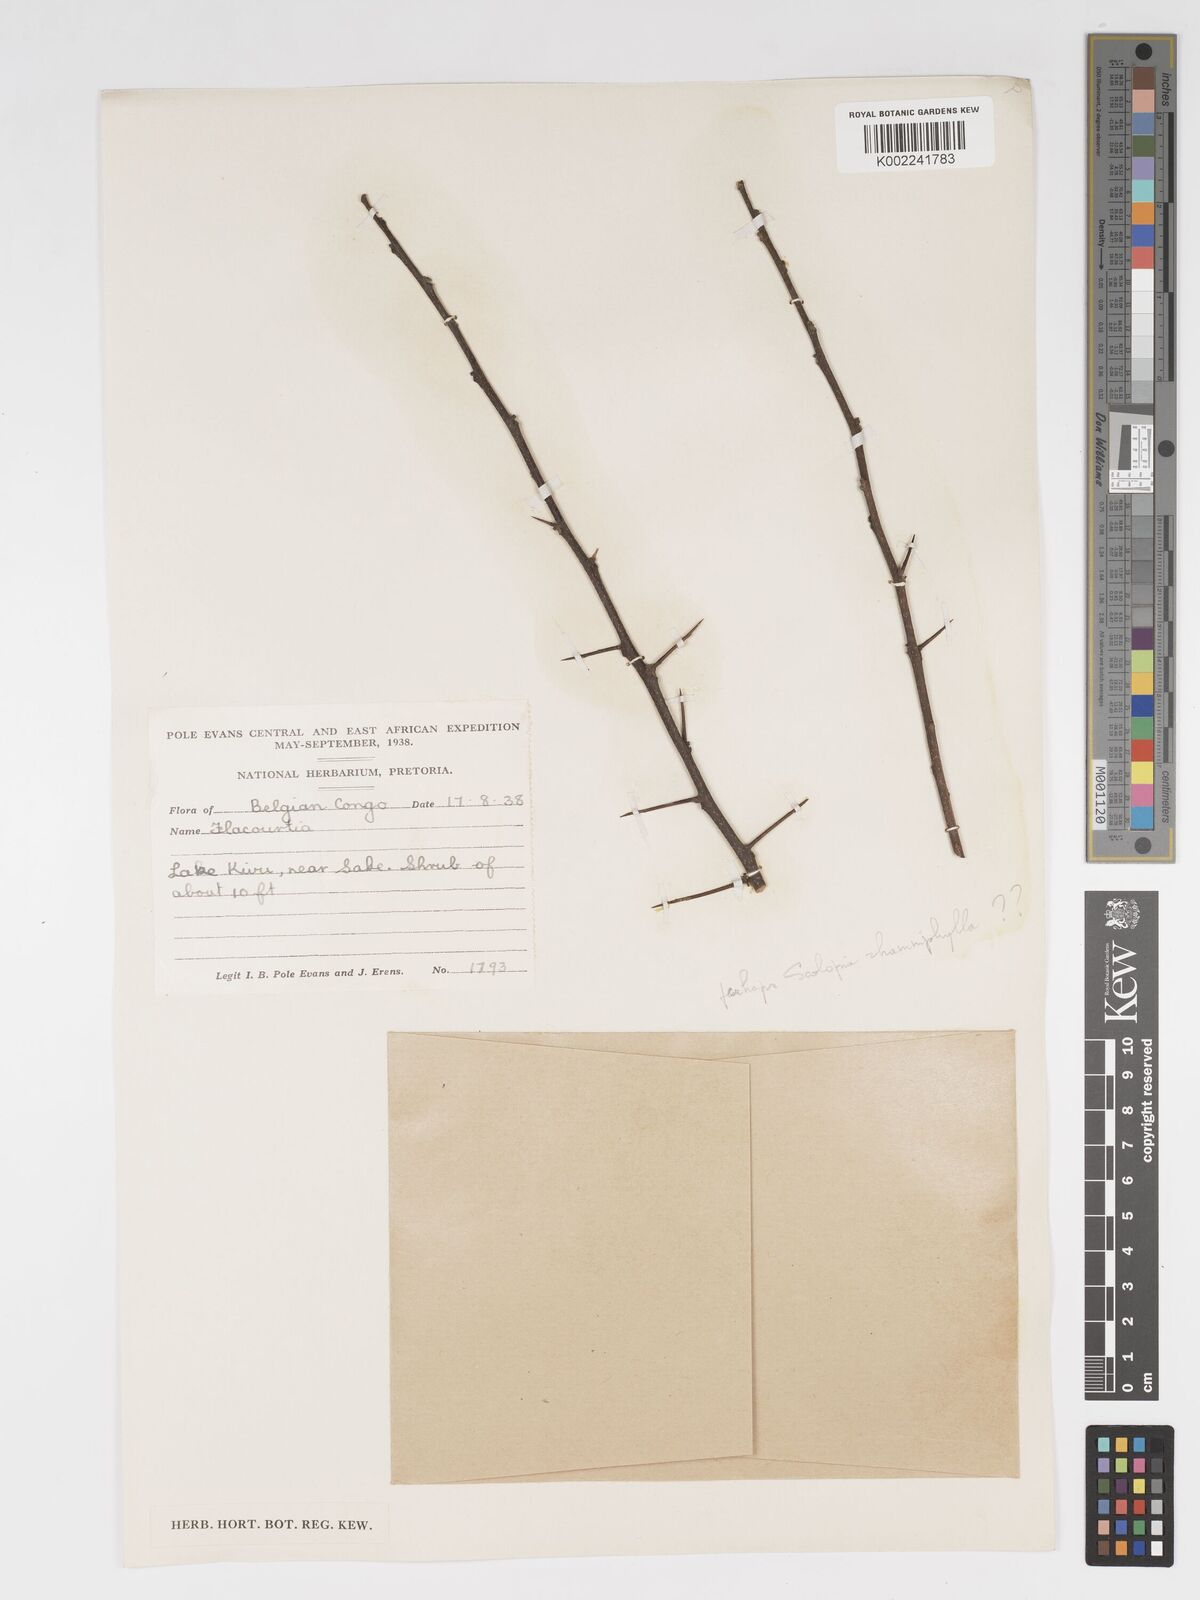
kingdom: Plantae
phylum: Tracheophyta
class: Magnoliopsida
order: Malpighiales
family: Salicaceae
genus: Flacourtia
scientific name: Flacourtia
